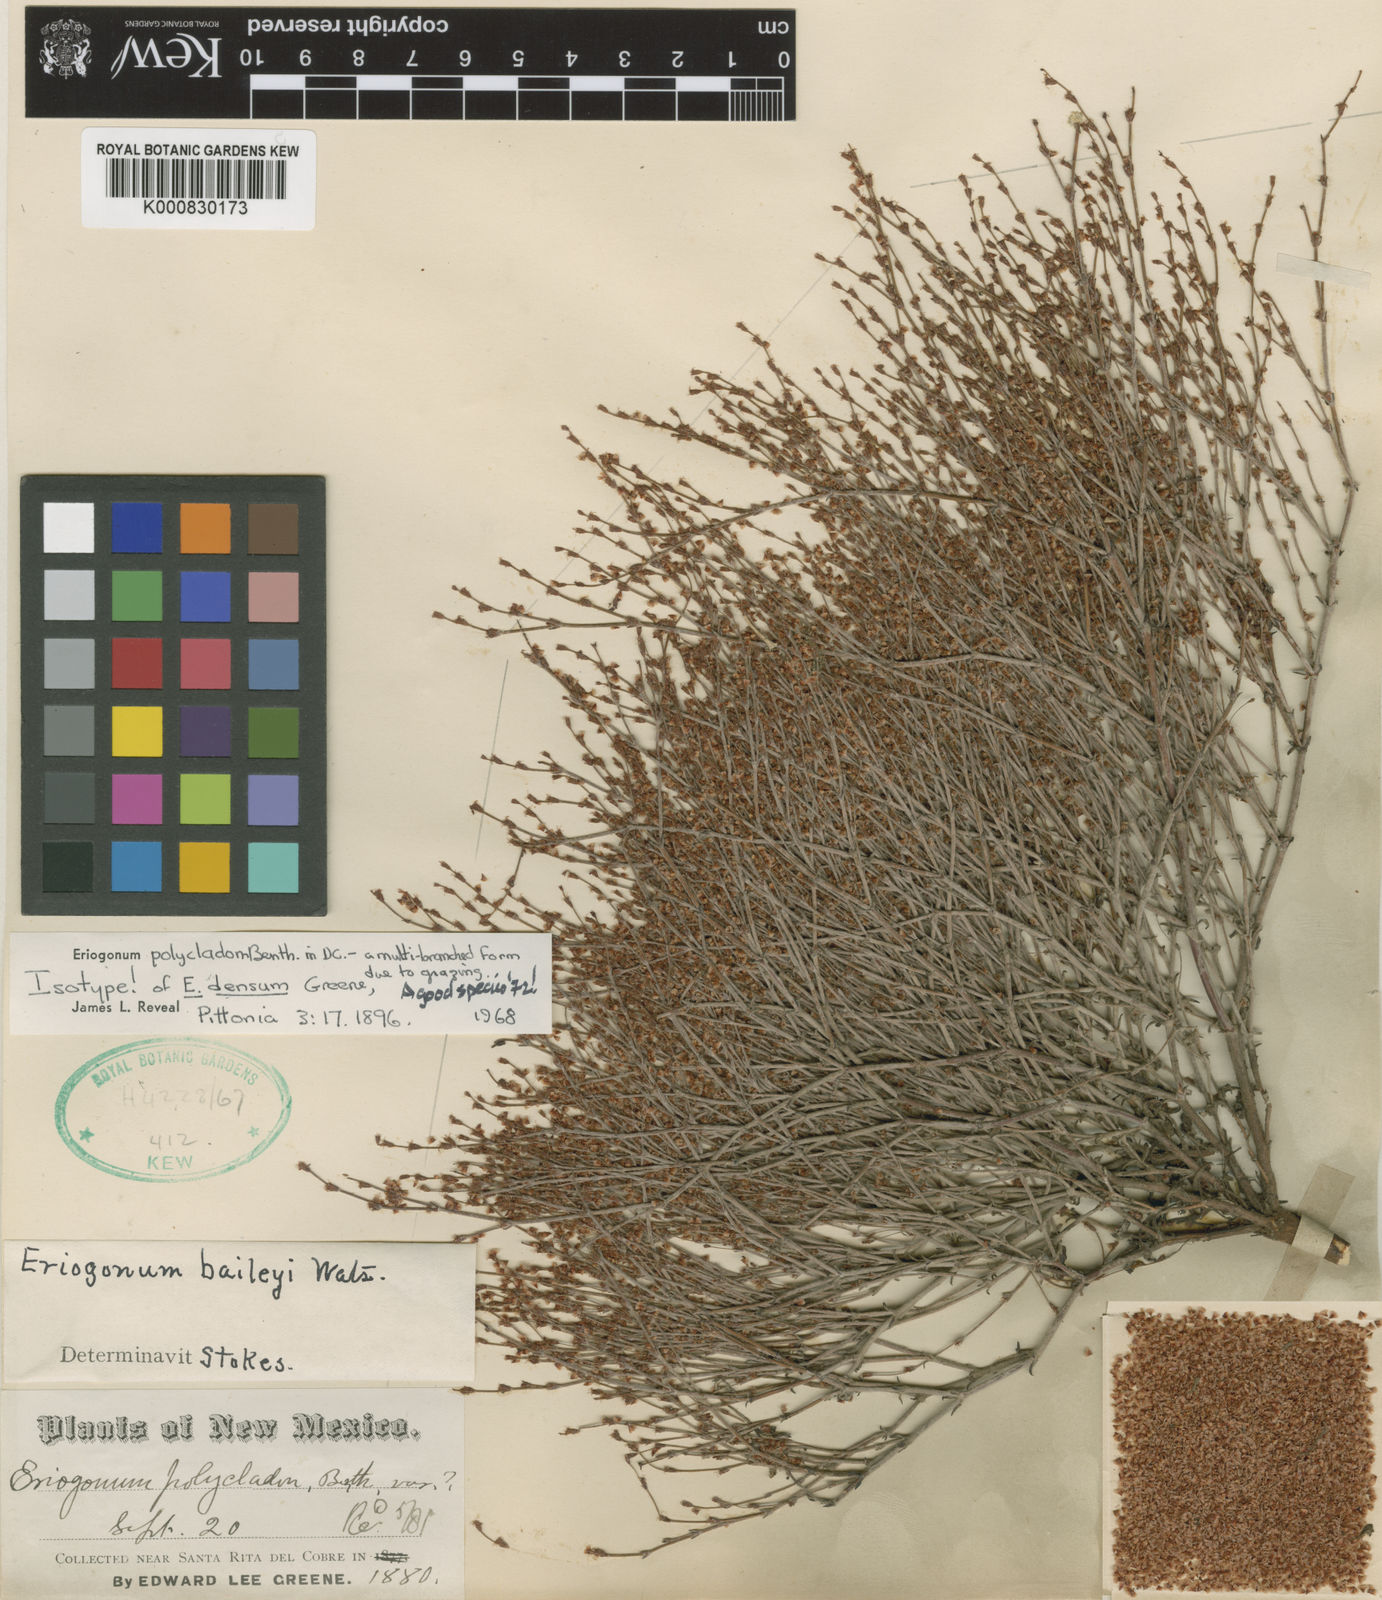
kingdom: Plantae
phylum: Tracheophyta
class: Magnoliopsida
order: Caryophyllales
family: Polygonaceae
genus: Eriogonum
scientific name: Eriogonum polycladon
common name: Sorrel wild buckwheat
